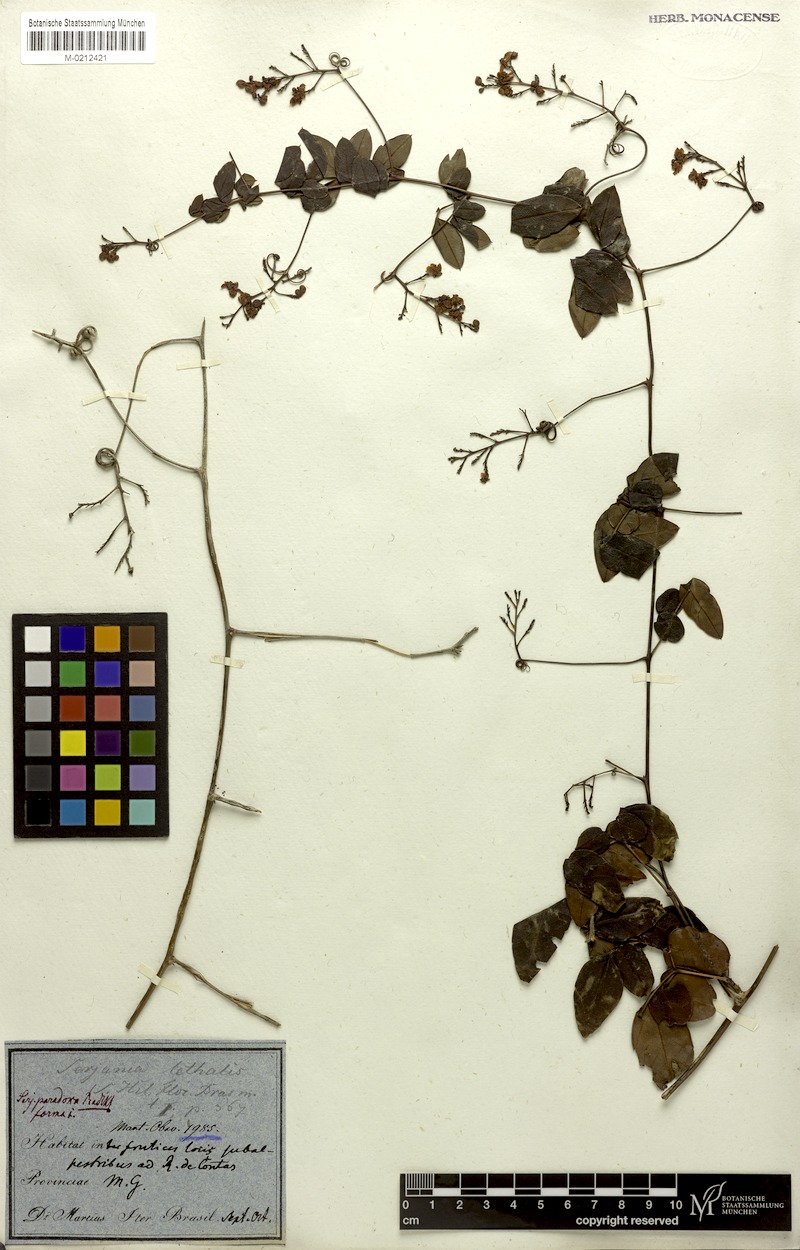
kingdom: Plantae
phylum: Tracheophyta
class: Magnoliopsida
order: Sapindales
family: Sapindaceae
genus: Serjania
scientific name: Serjania paradoxa
